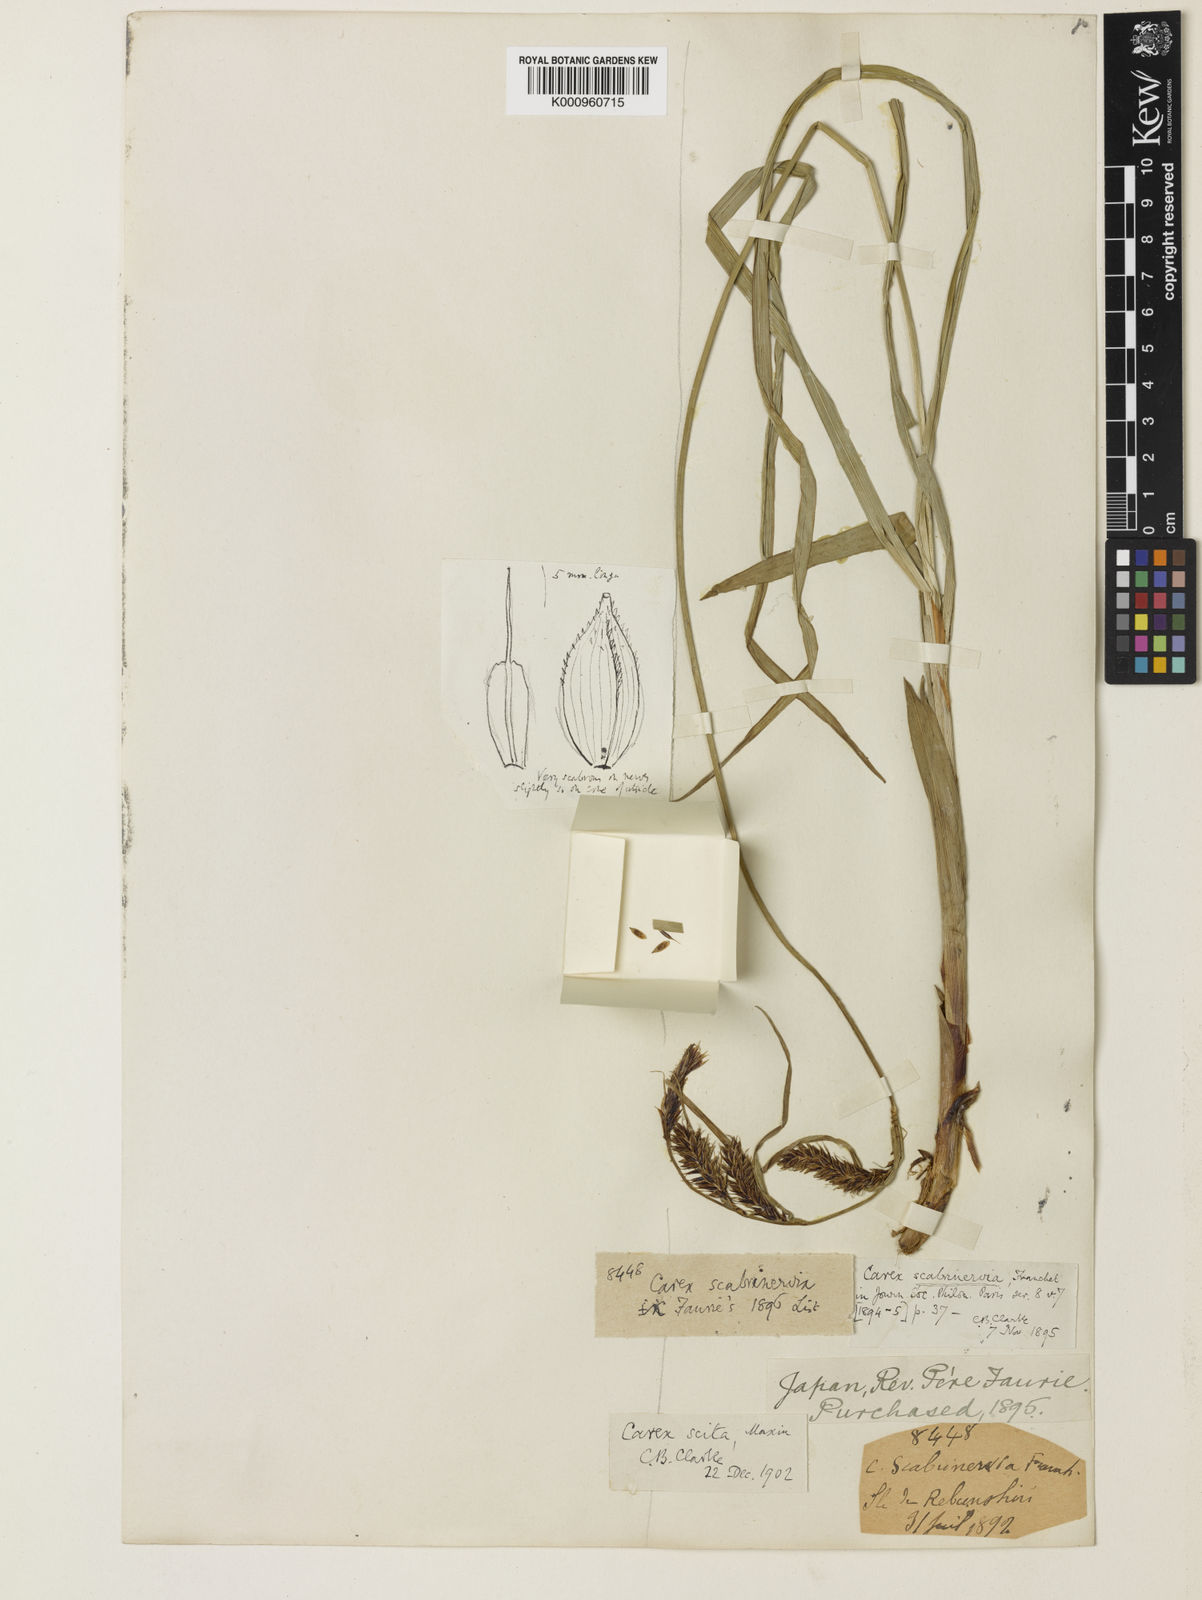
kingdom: Plantae
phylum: Tracheophyta
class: Liliopsida
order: Poales
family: Cyperaceae
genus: Carex
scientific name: Carex scita
